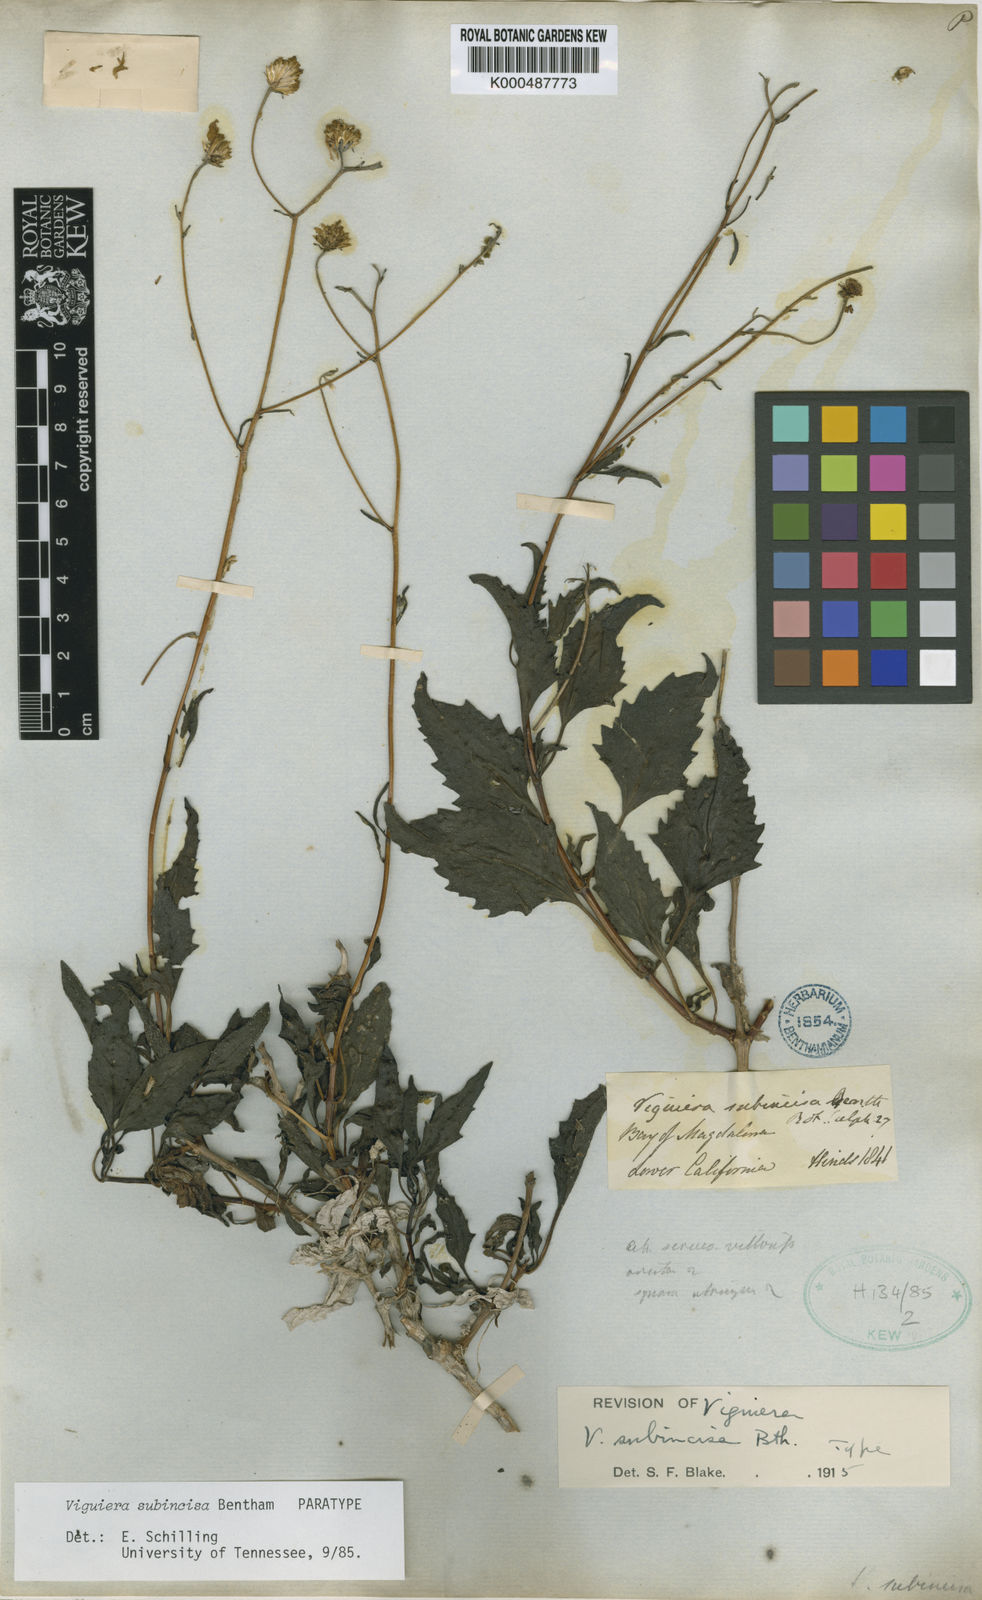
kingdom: Plantae
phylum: Tracheophyta
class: Magnoliopsida
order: Asterales
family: Asteraceae
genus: Bahiopsis
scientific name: Bahiopsis subincisa
